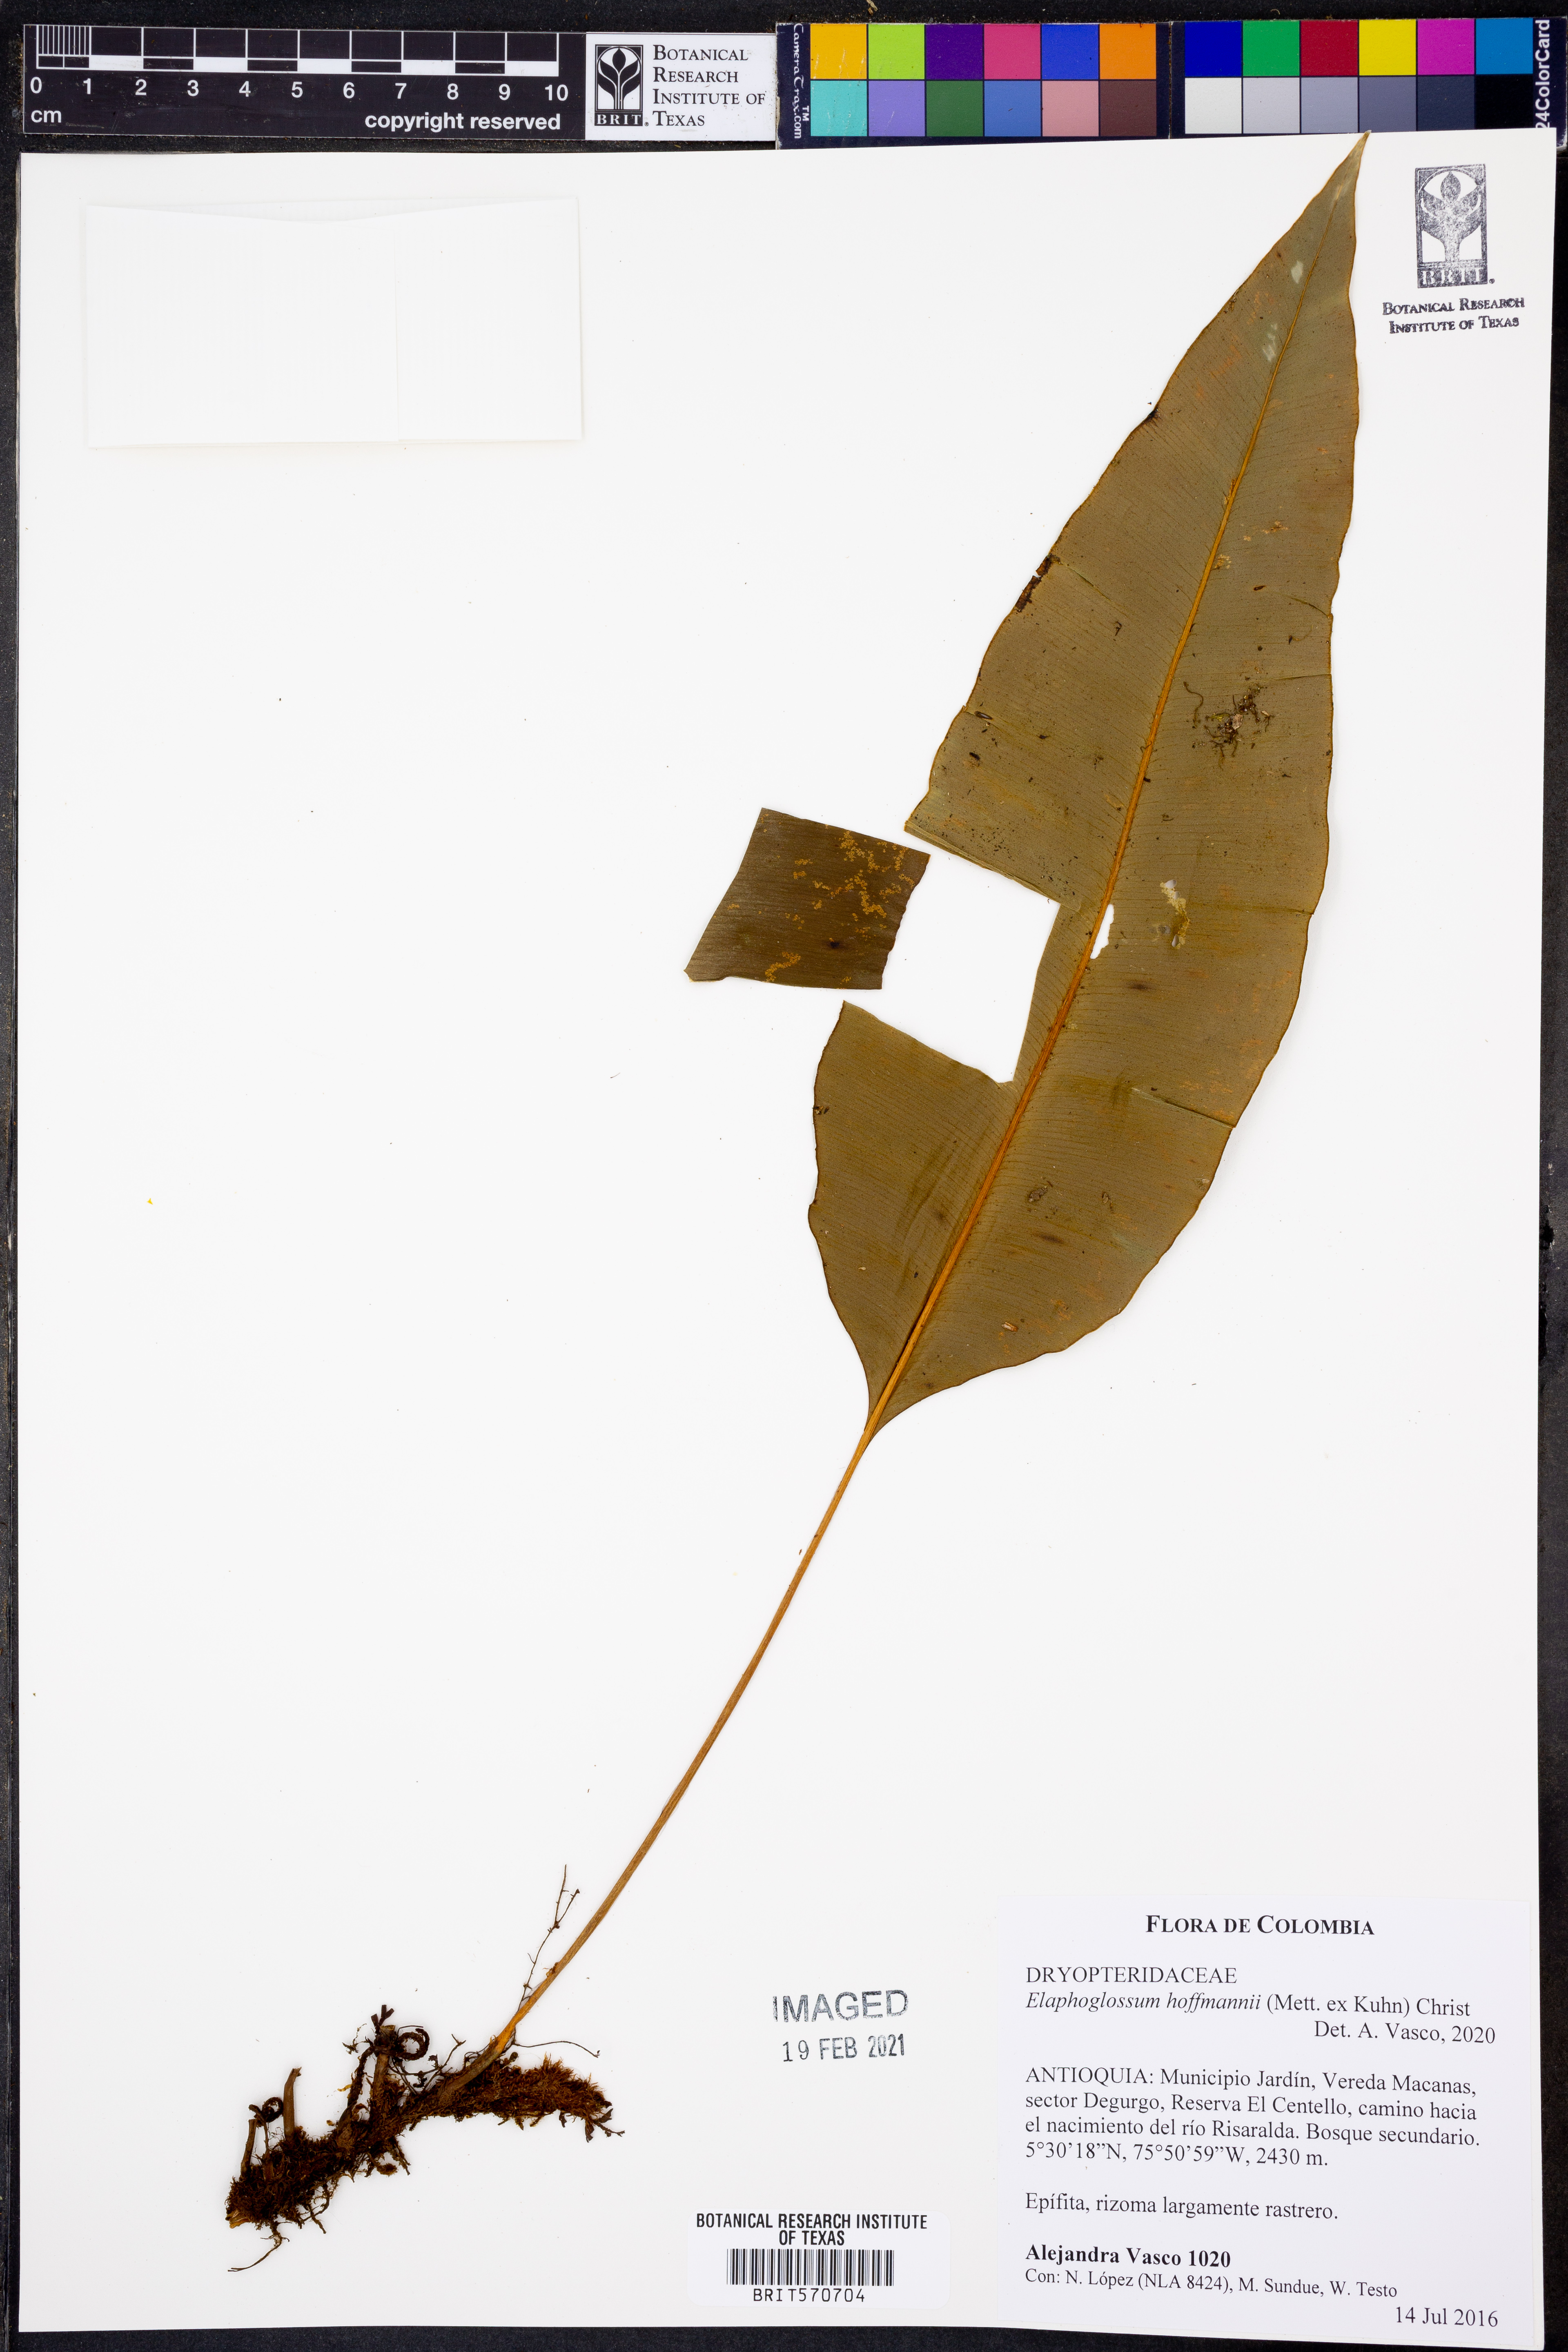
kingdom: Plantae
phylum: Tracheophyta
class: Polypodiopsida
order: Polypodiales
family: Dryopteridaceae
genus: Elaphoglossum
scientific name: Elaphoglossum hoffmannii
